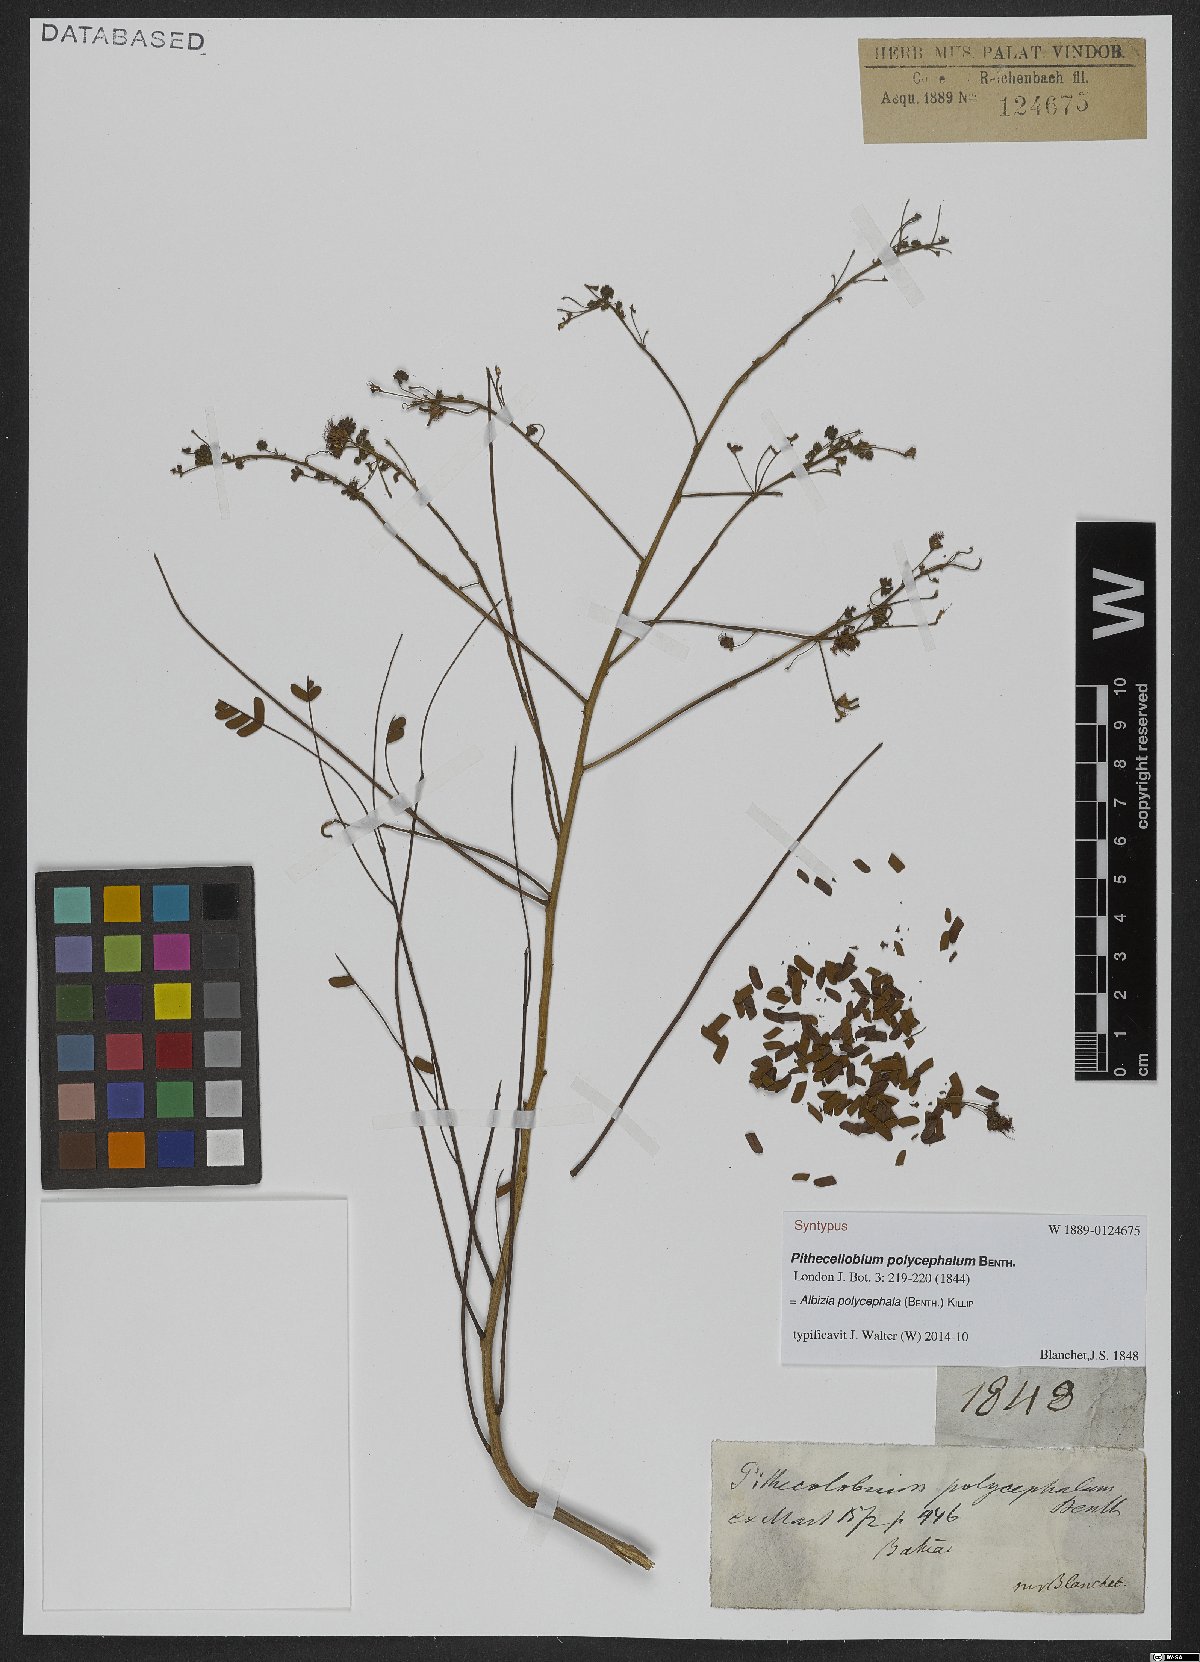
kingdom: Plantae
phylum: Tracheophyta
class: Magnoliopsida
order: Fabales
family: Fabaceae
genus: Albizia
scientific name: Albizia polycephala
